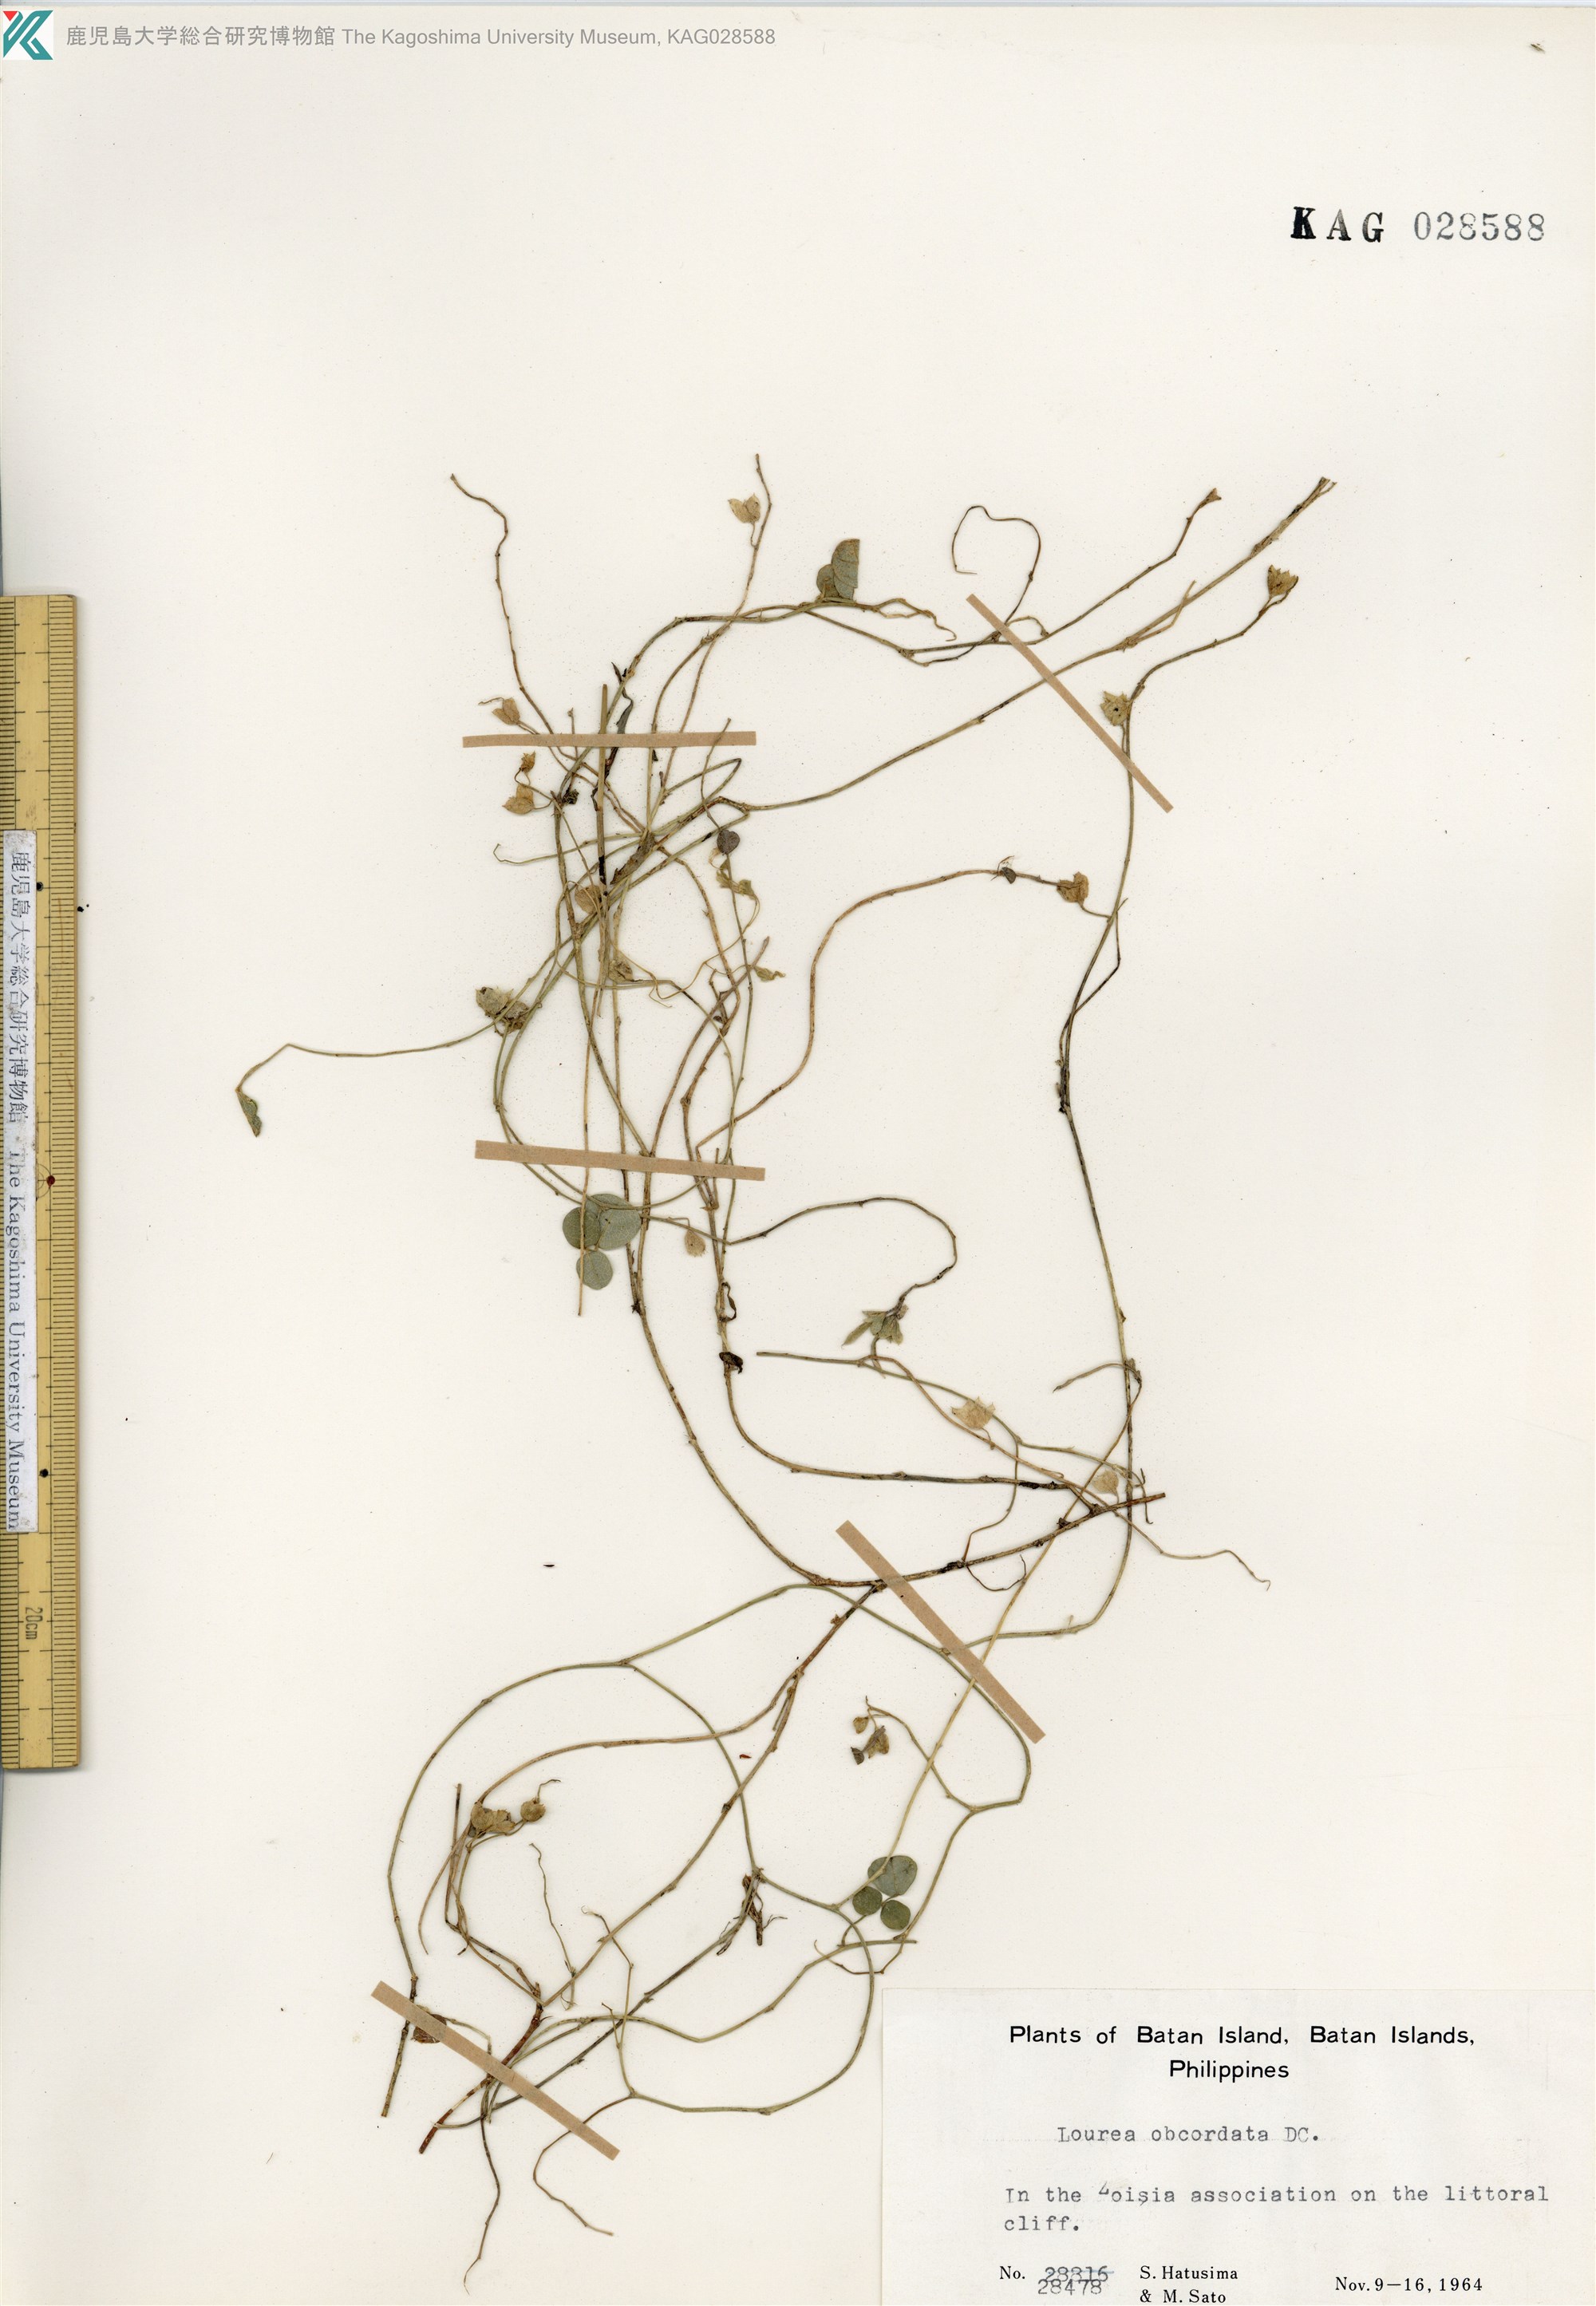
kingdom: Plantae
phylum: Tracheophyta
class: Magnoliopsida
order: Fabales
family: Fabaceae
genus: Christia
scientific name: Christia obcordata
